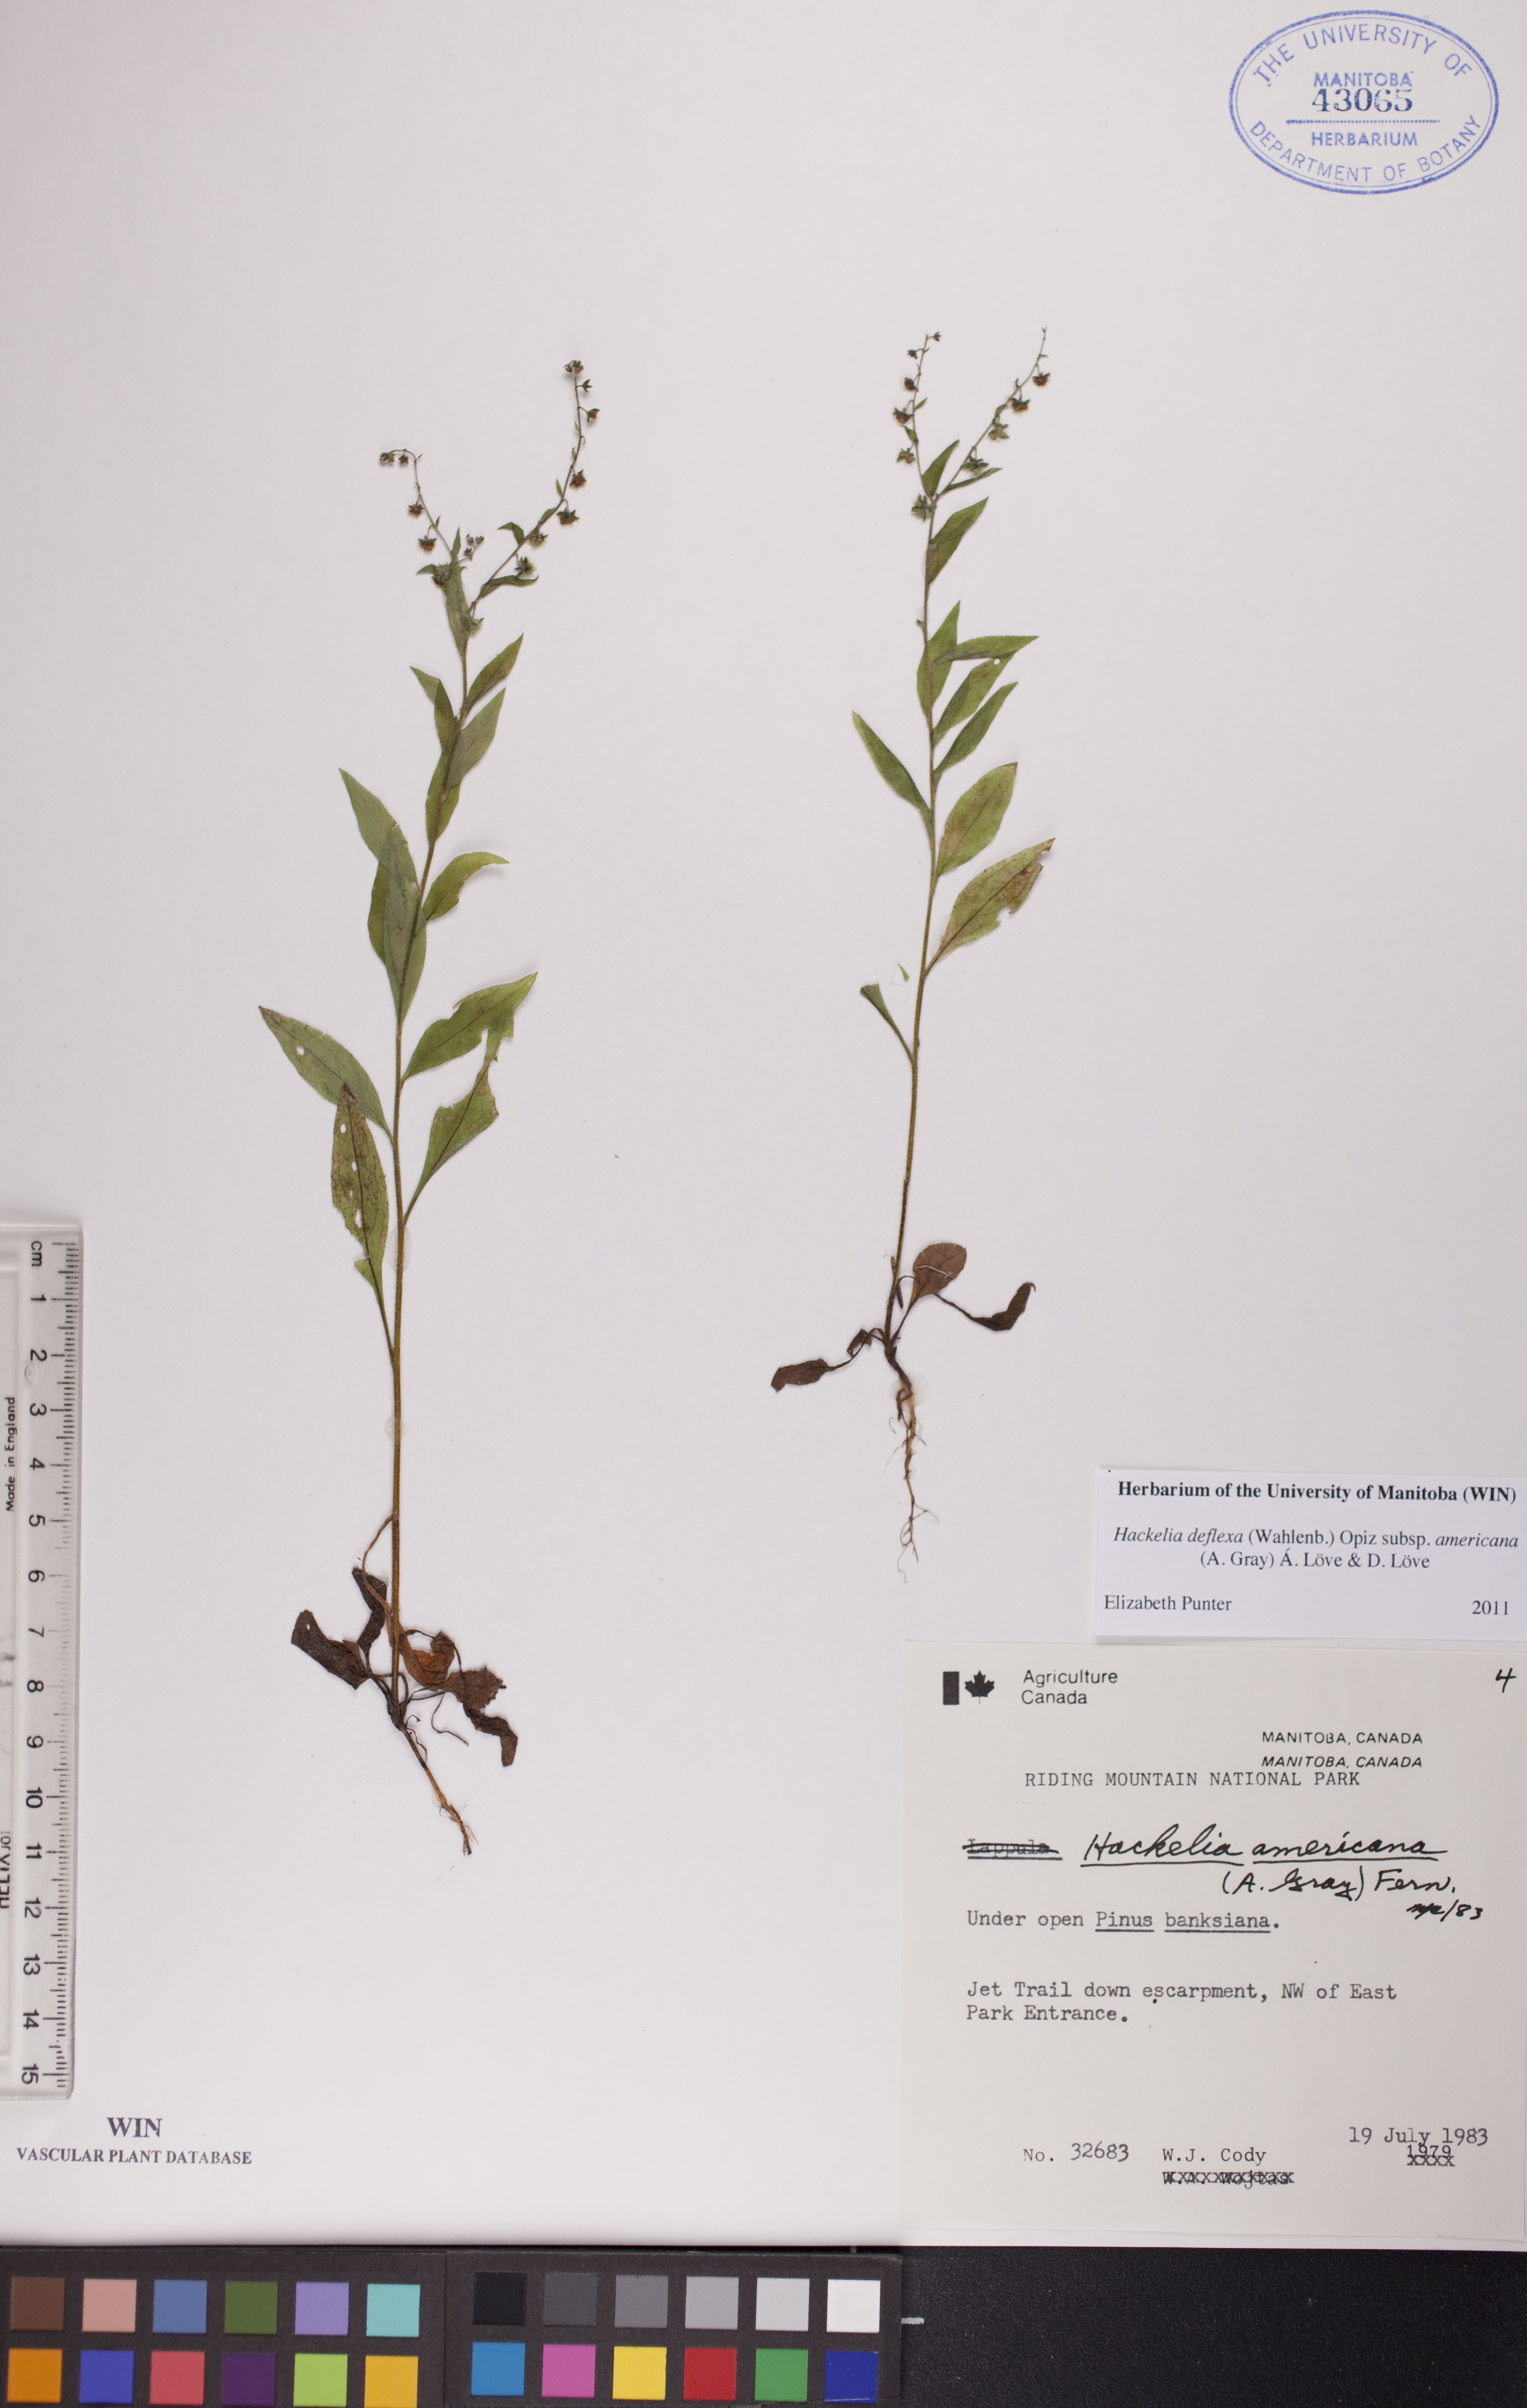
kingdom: Plantae
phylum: Tracheophyta
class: Magnoliopsida
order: Boraginales
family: Boraginaceae
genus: Hackelia
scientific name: Hackelia deflexa
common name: Nodding stickseed
